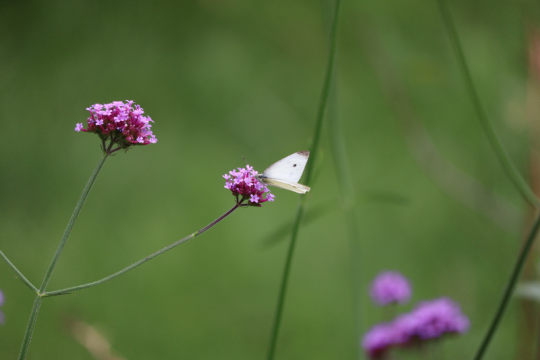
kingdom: Animalia
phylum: Arthropoda
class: Insecta
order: Lepidoptera
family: Pieridae
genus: Pieris
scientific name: Pieris rapae
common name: Cabbage White
